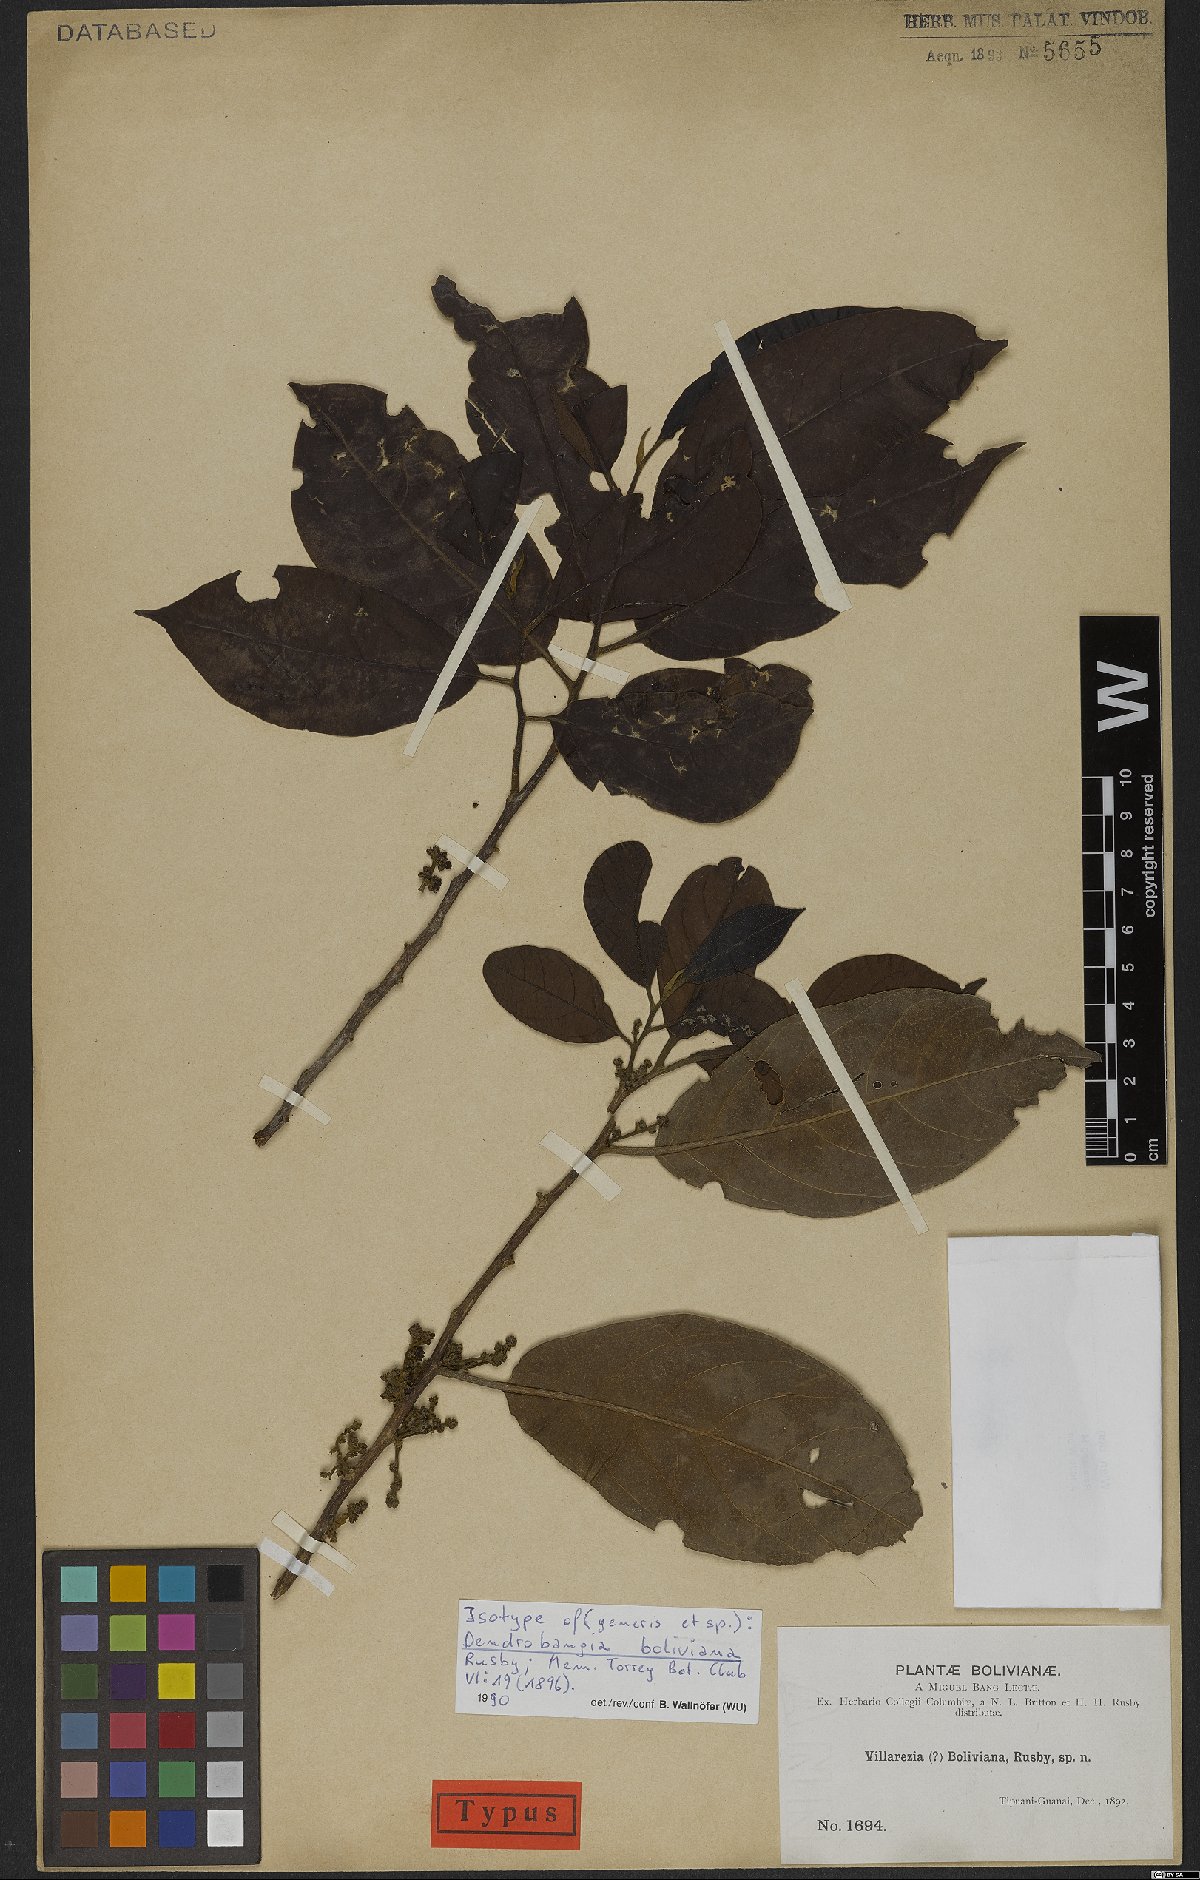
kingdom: Plantae
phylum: Tracheophyta
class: Magnoliopsida
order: Metteniusales
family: Metteniusaceae
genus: Dendrobangia
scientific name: Dendrobangia boliviana
